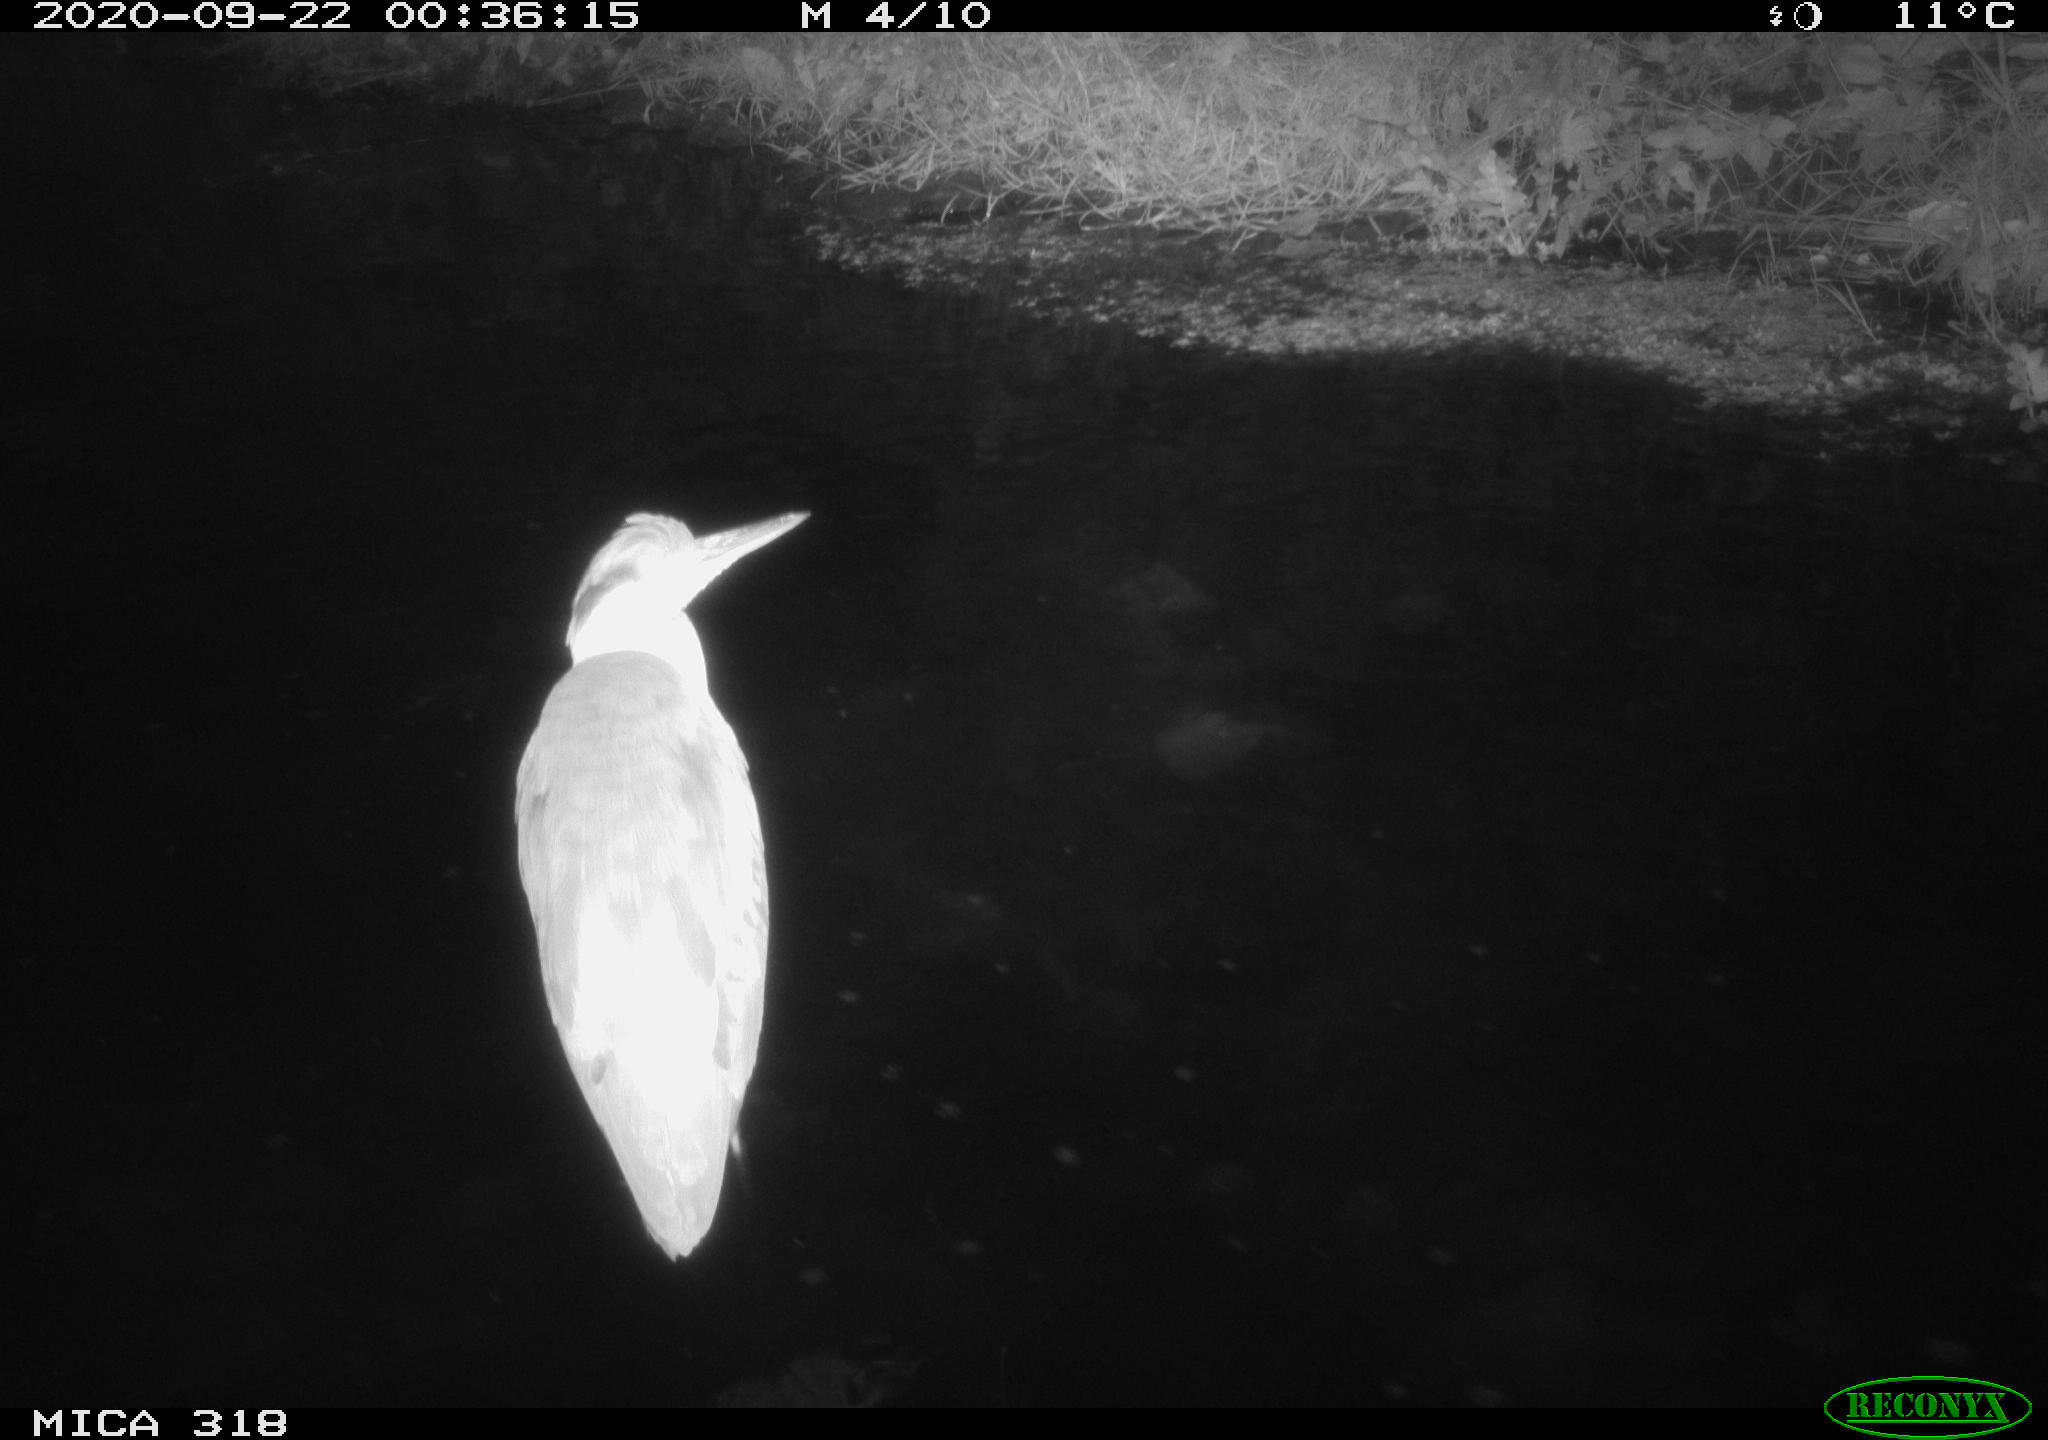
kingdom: Animalia
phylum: Chordata
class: Aves
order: Pelecaniformes
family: Ardeidae
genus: Ardea
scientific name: Ardea
